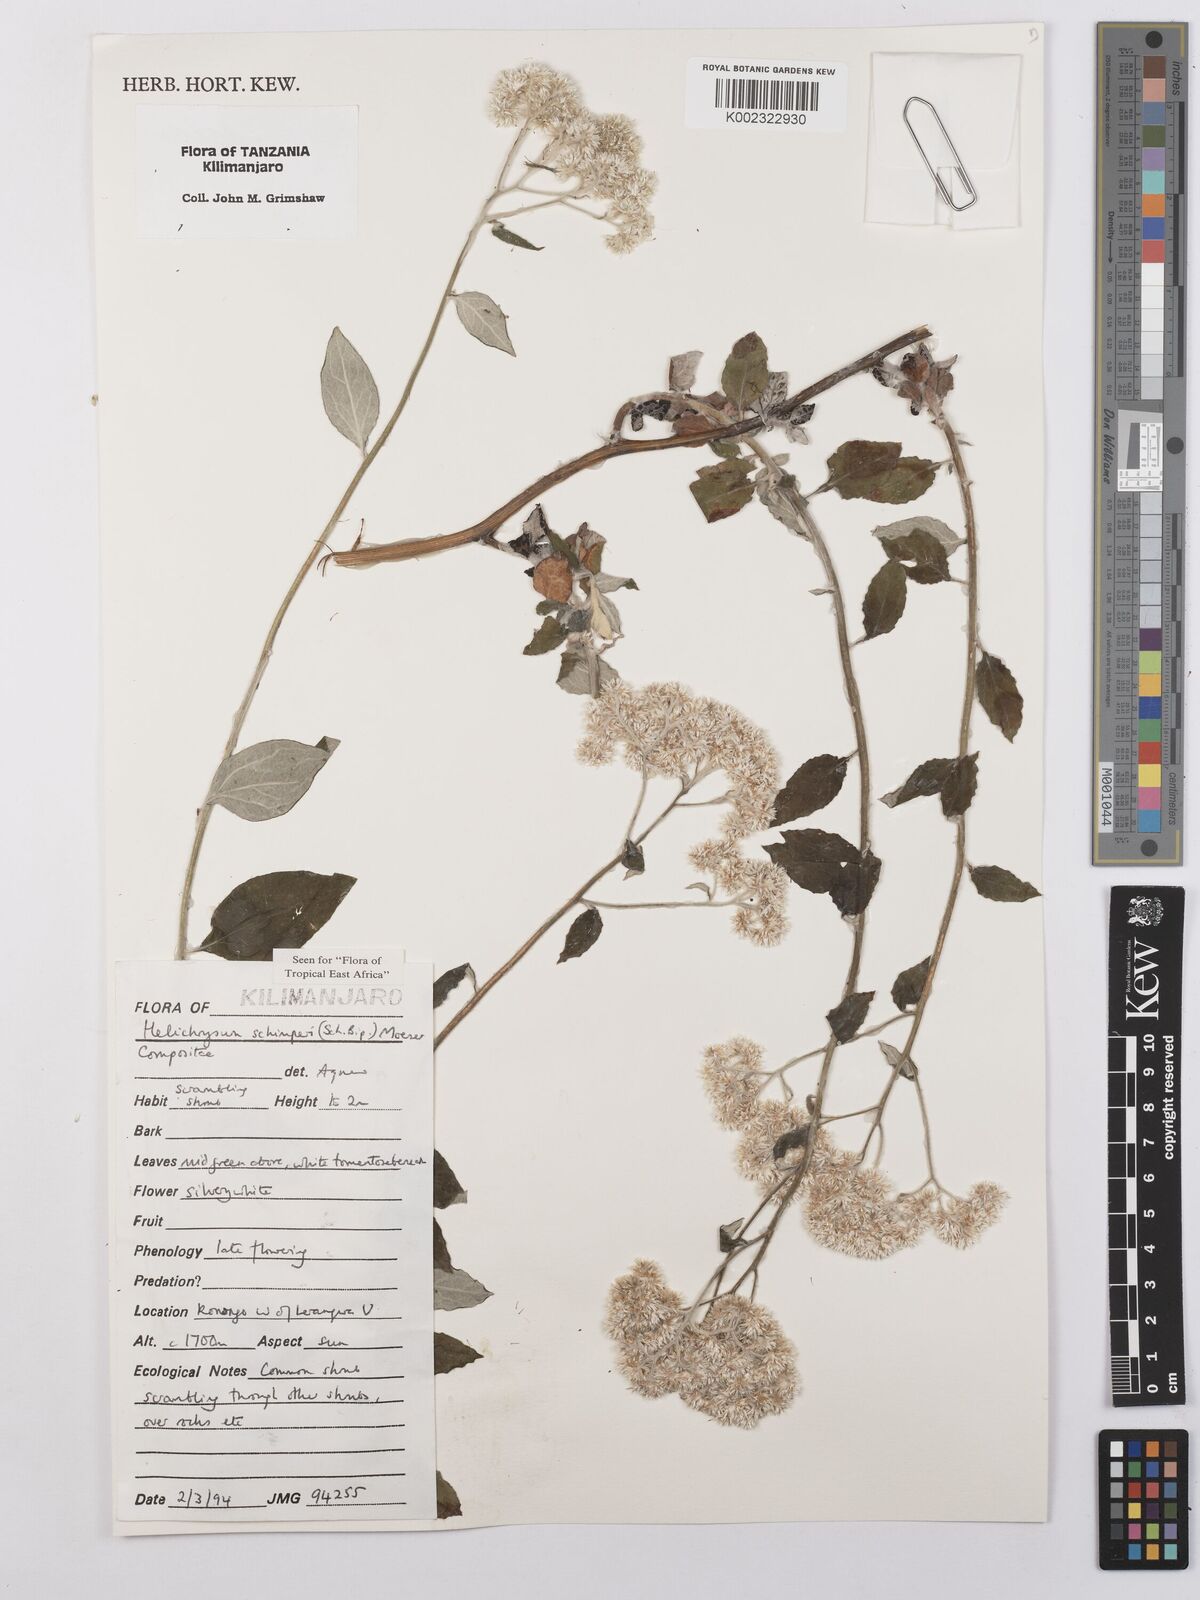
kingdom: Plantae
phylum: Tracheophyta
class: Magnoliopsida
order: Asterales
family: Asteraceae
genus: Helichrysum
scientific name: Helichrysum schimperi
